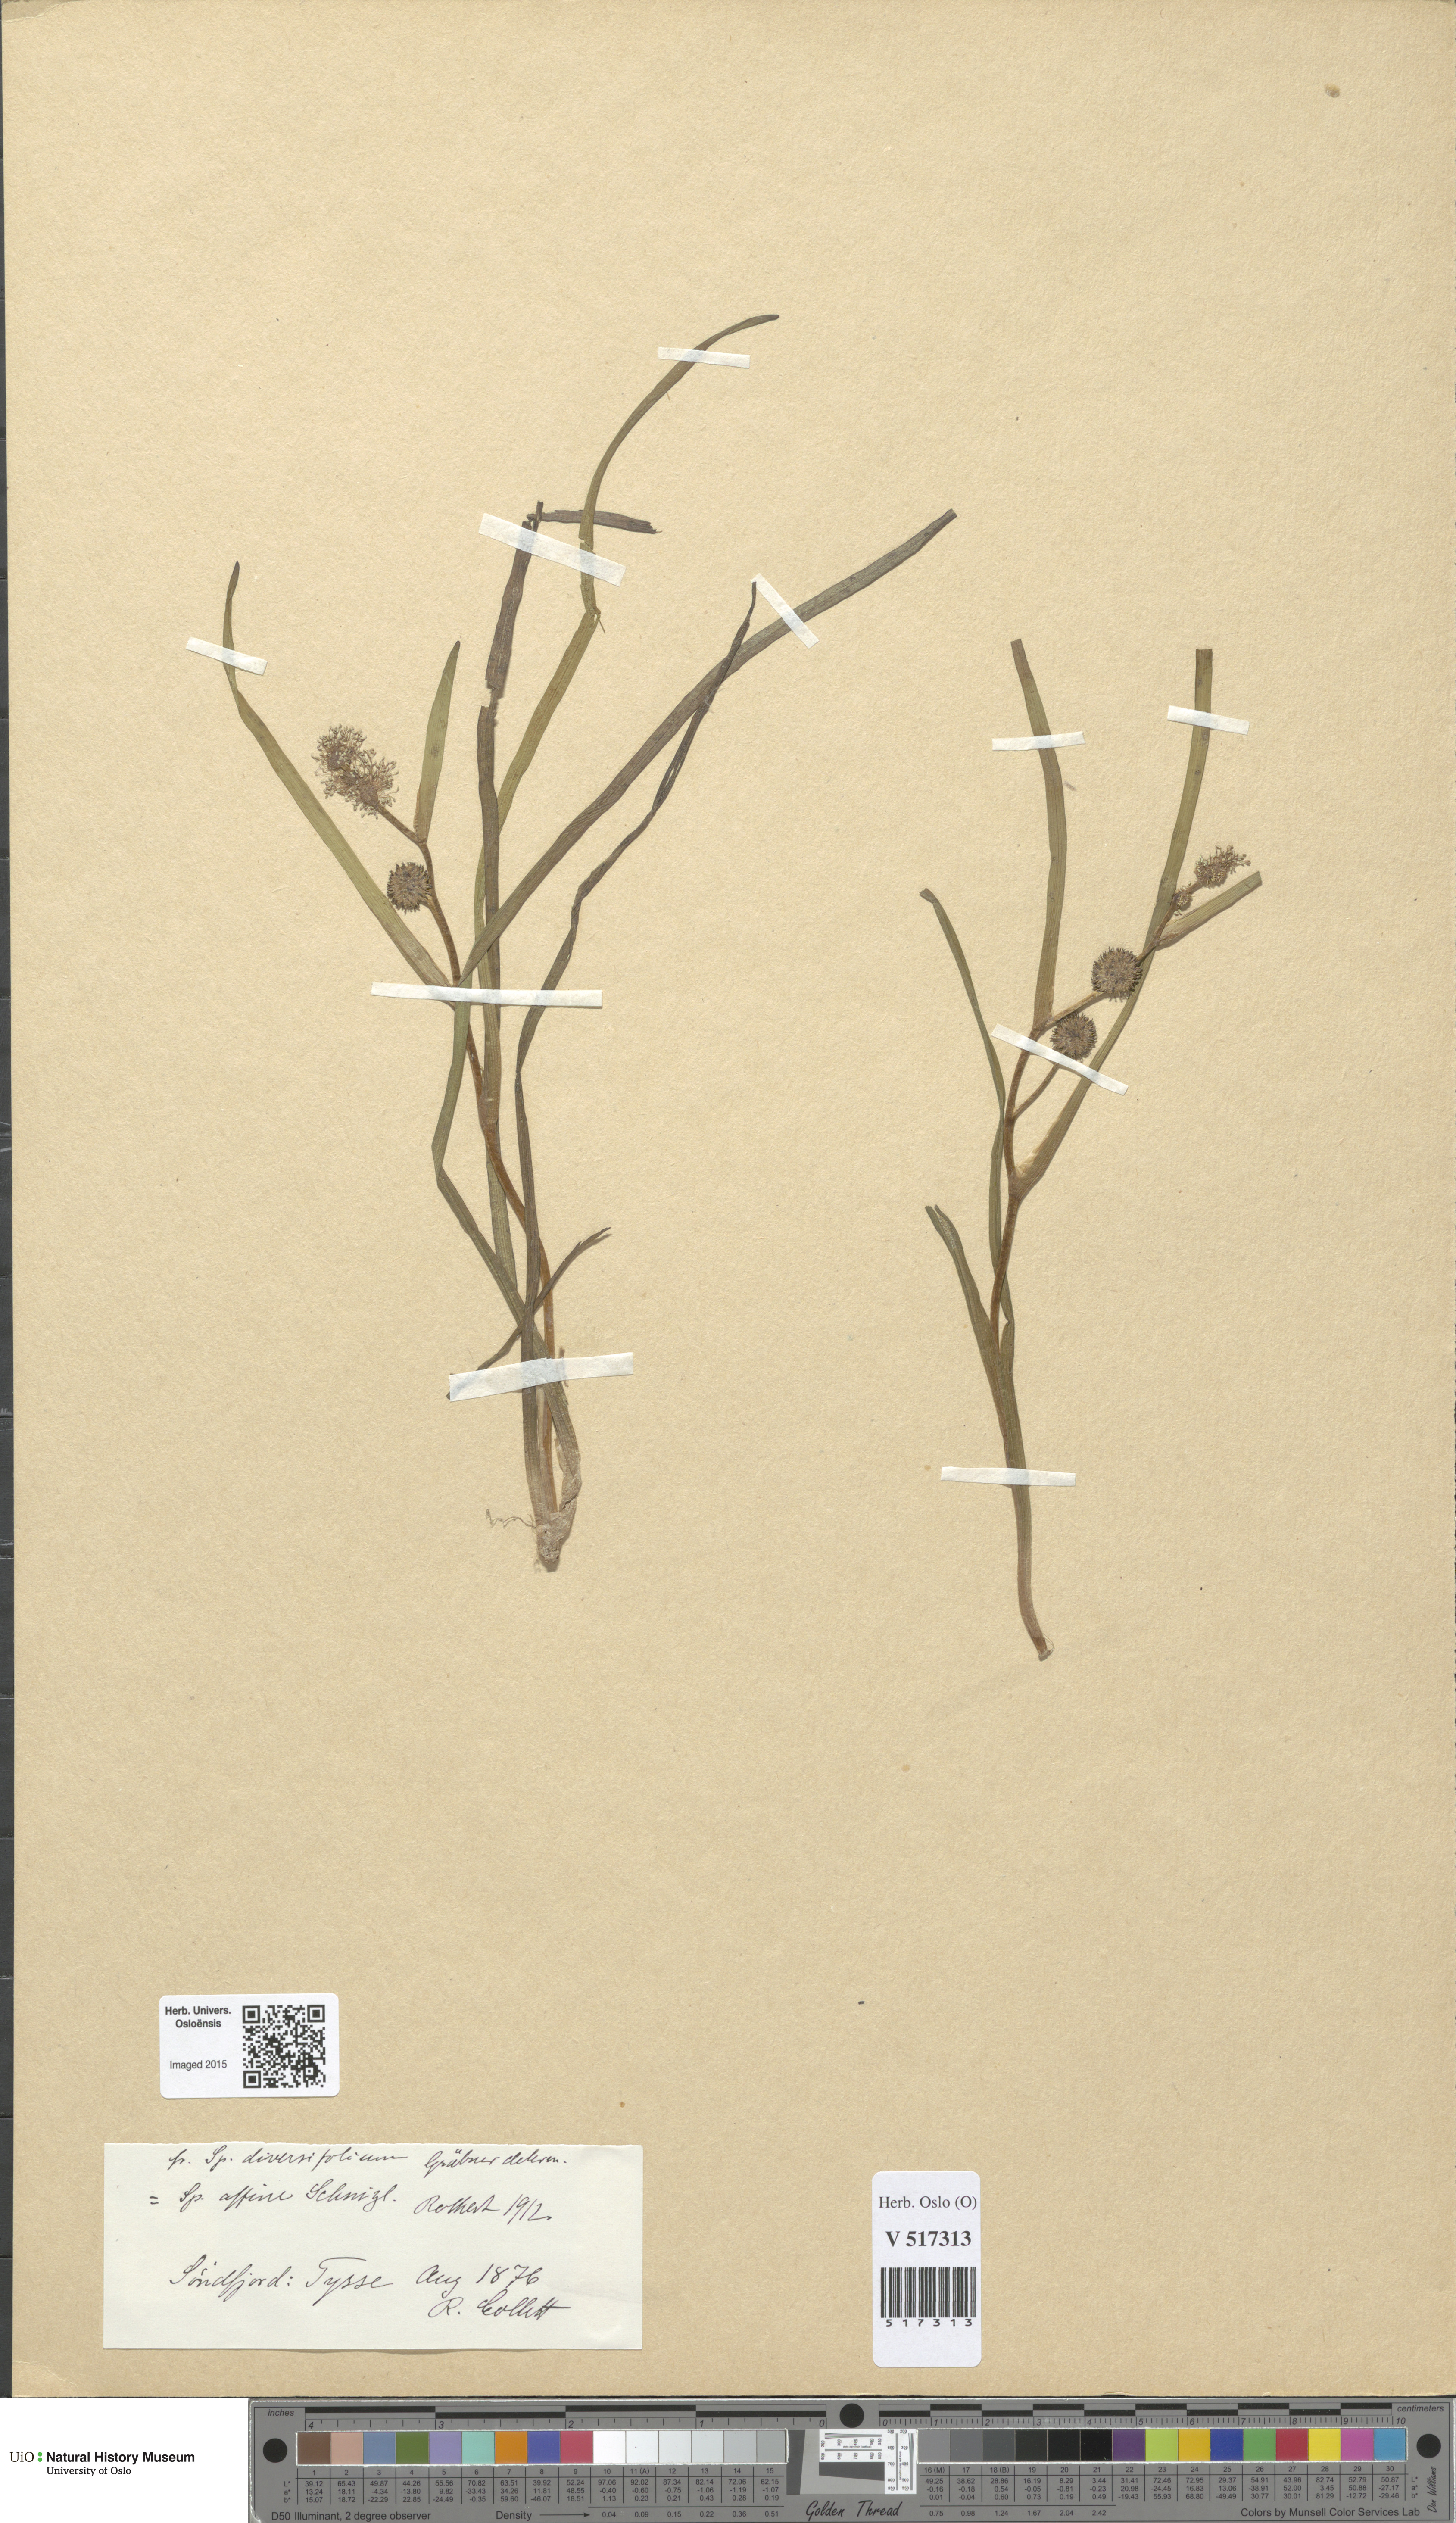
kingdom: Plantae
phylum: Tracheophyta
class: Liliopsida
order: Poales
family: Typhaceae
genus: Sparganium
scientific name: Sparganium angustifolium
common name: Floating bur-reed
